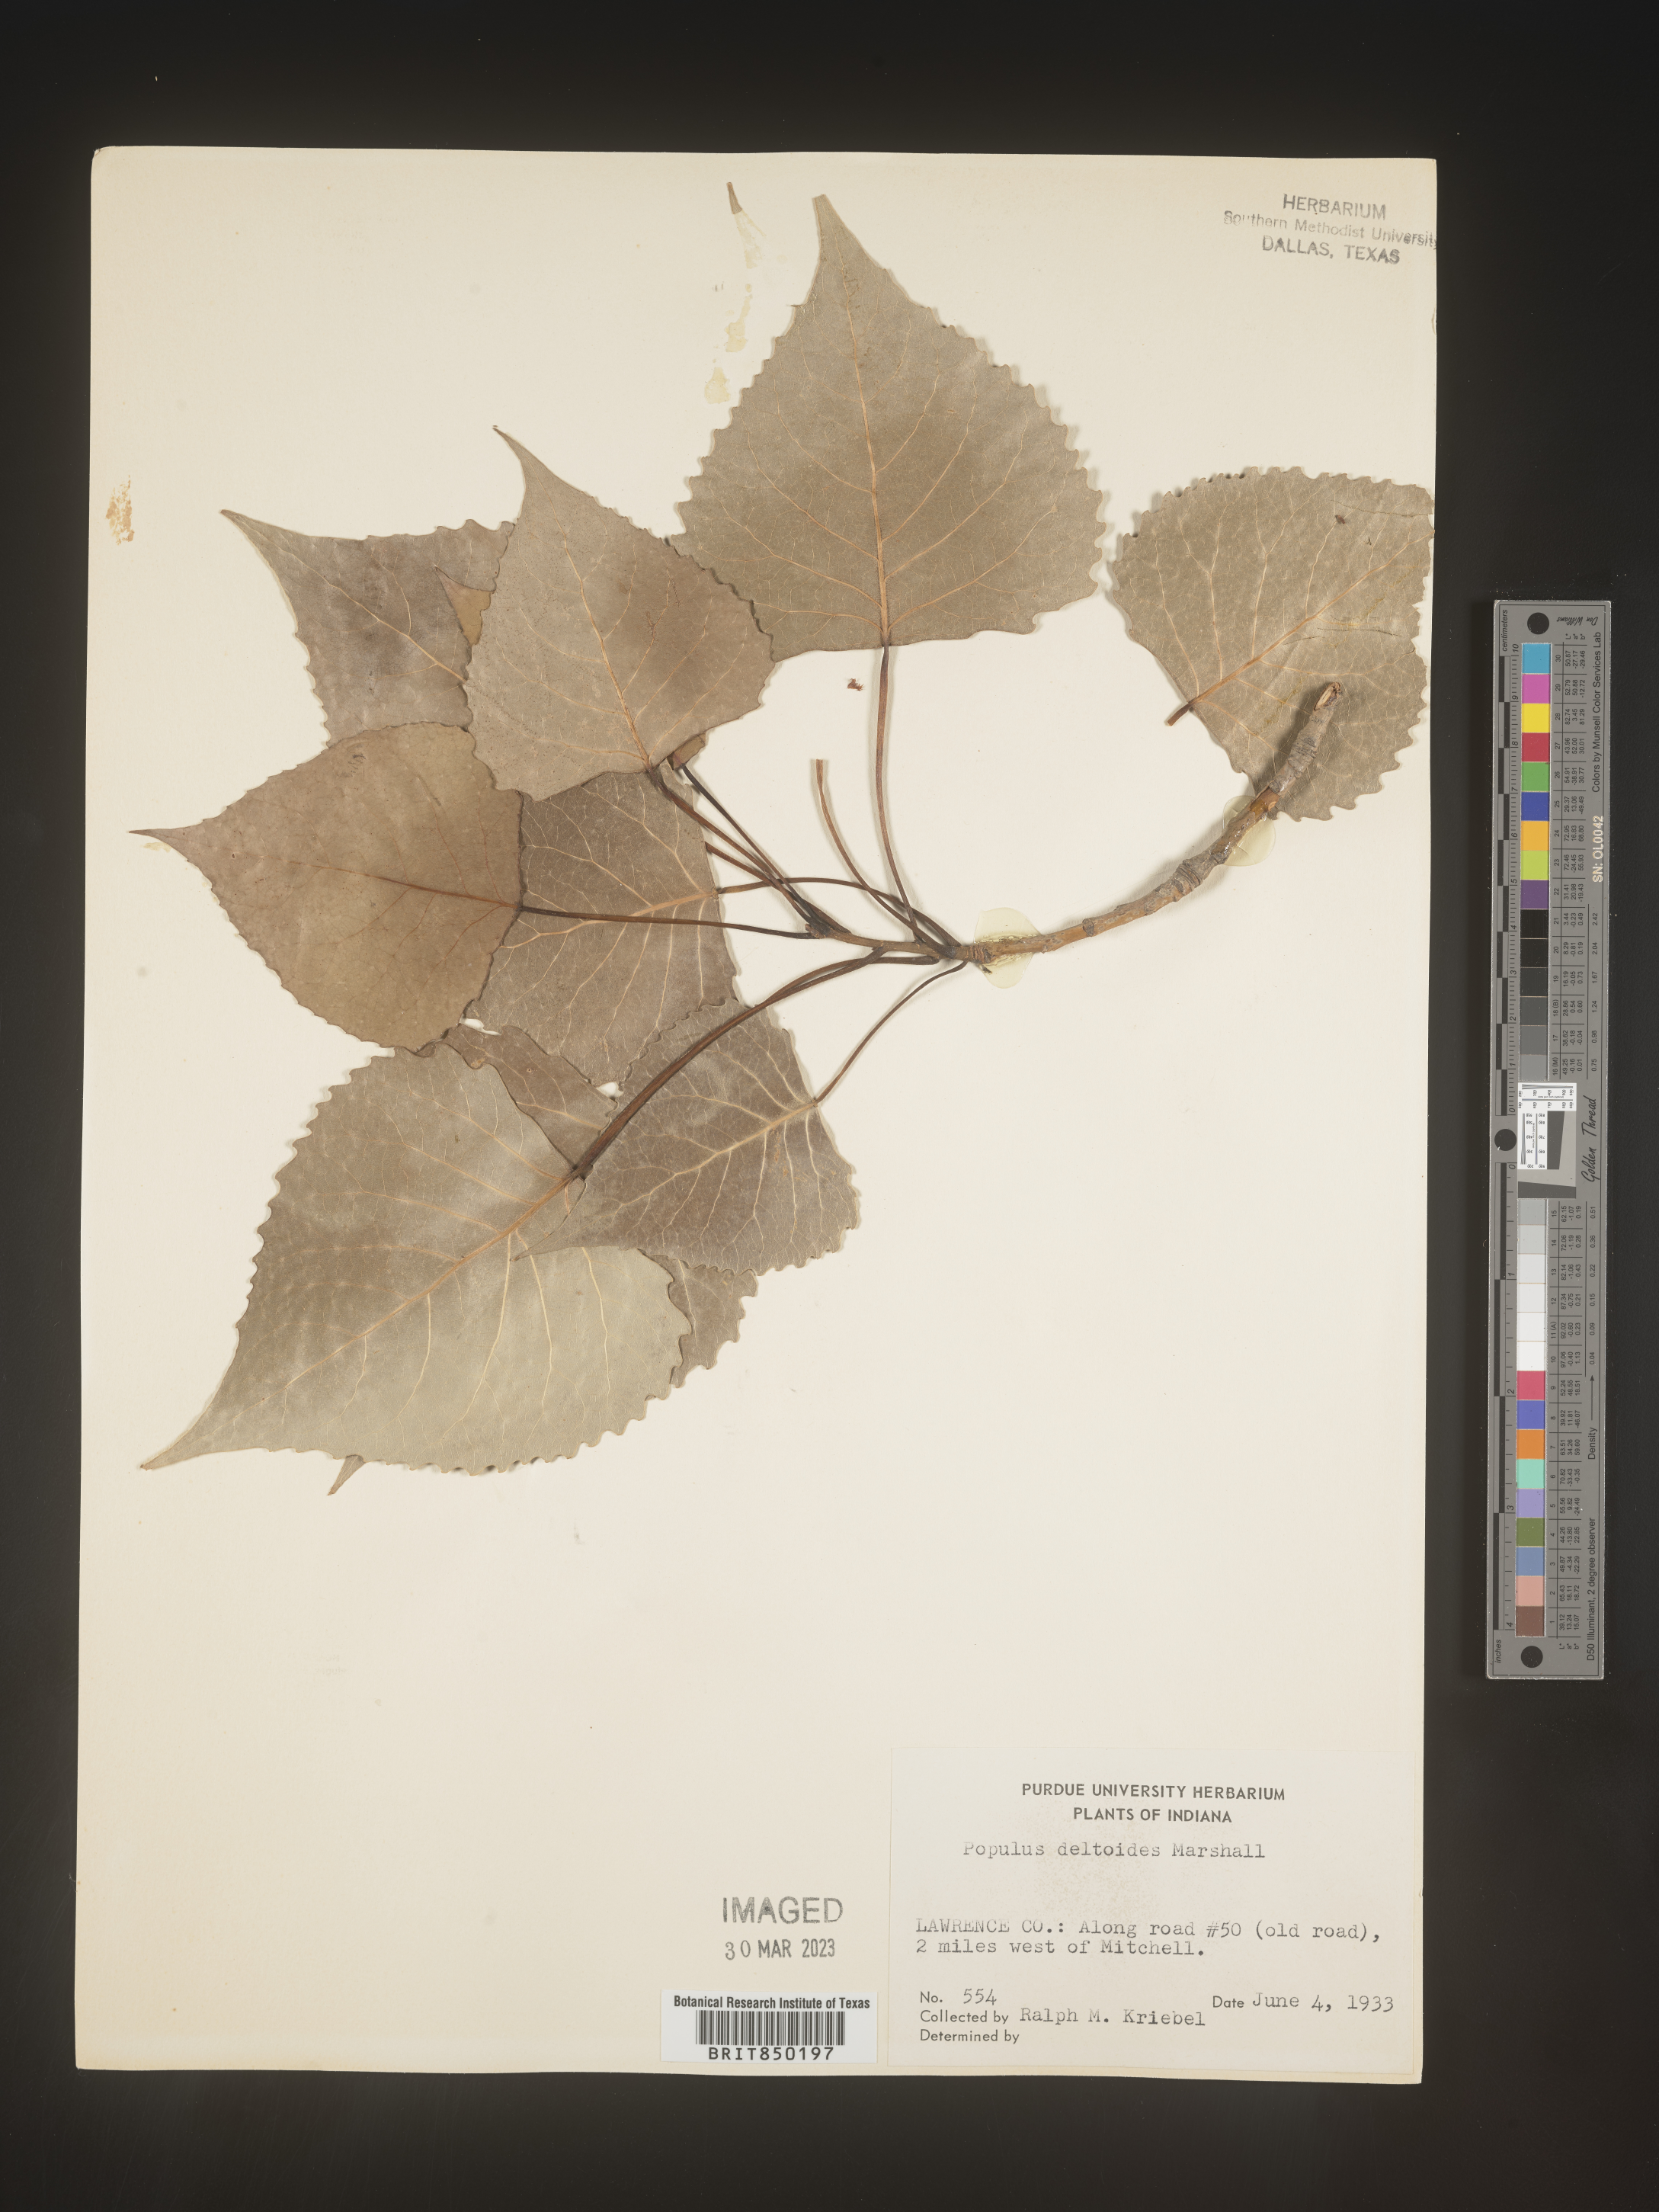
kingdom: Plantae
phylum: Tracheophyta
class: Magnoliopsida
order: Malpighiales
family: Salicaceae
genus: Populus
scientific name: Populus deltoides
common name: Eastern cottonwood
